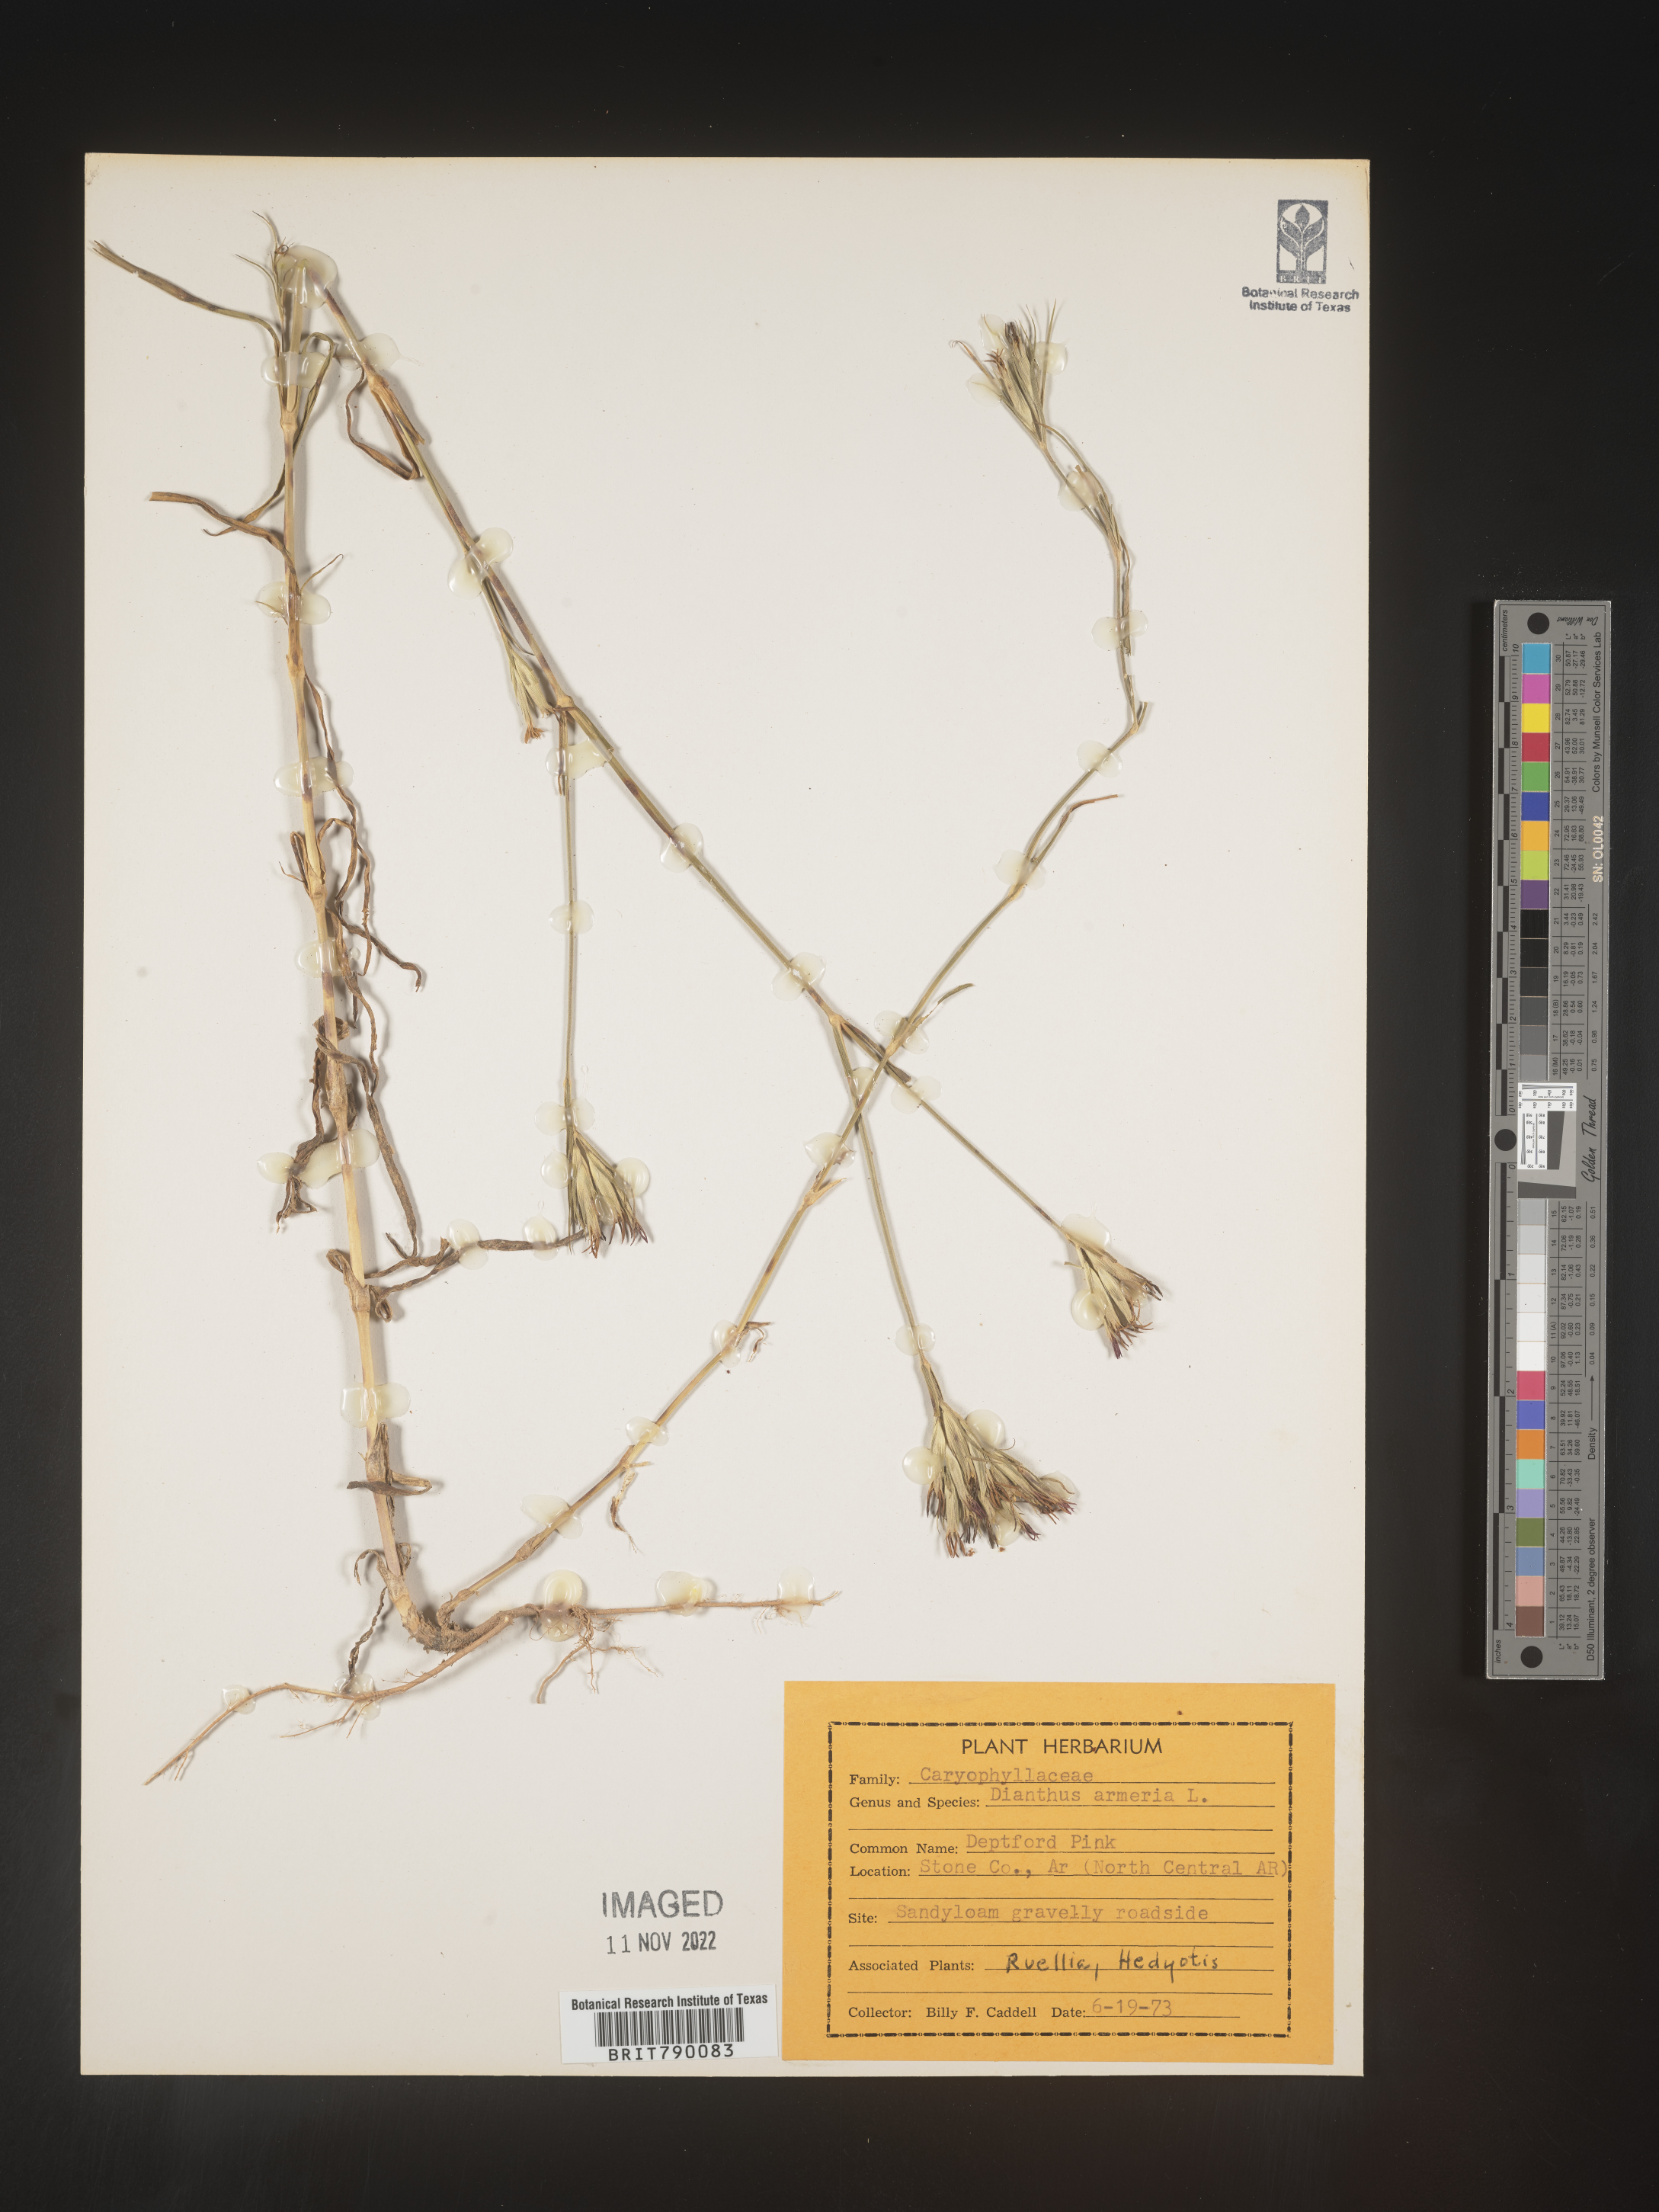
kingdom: Plantae
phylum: Tracheophyta
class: Magnoliopsida
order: Caryophyllales
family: Caryophyllaceae
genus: Dianthus
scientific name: Dianthus armeria
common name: Deptford pink
